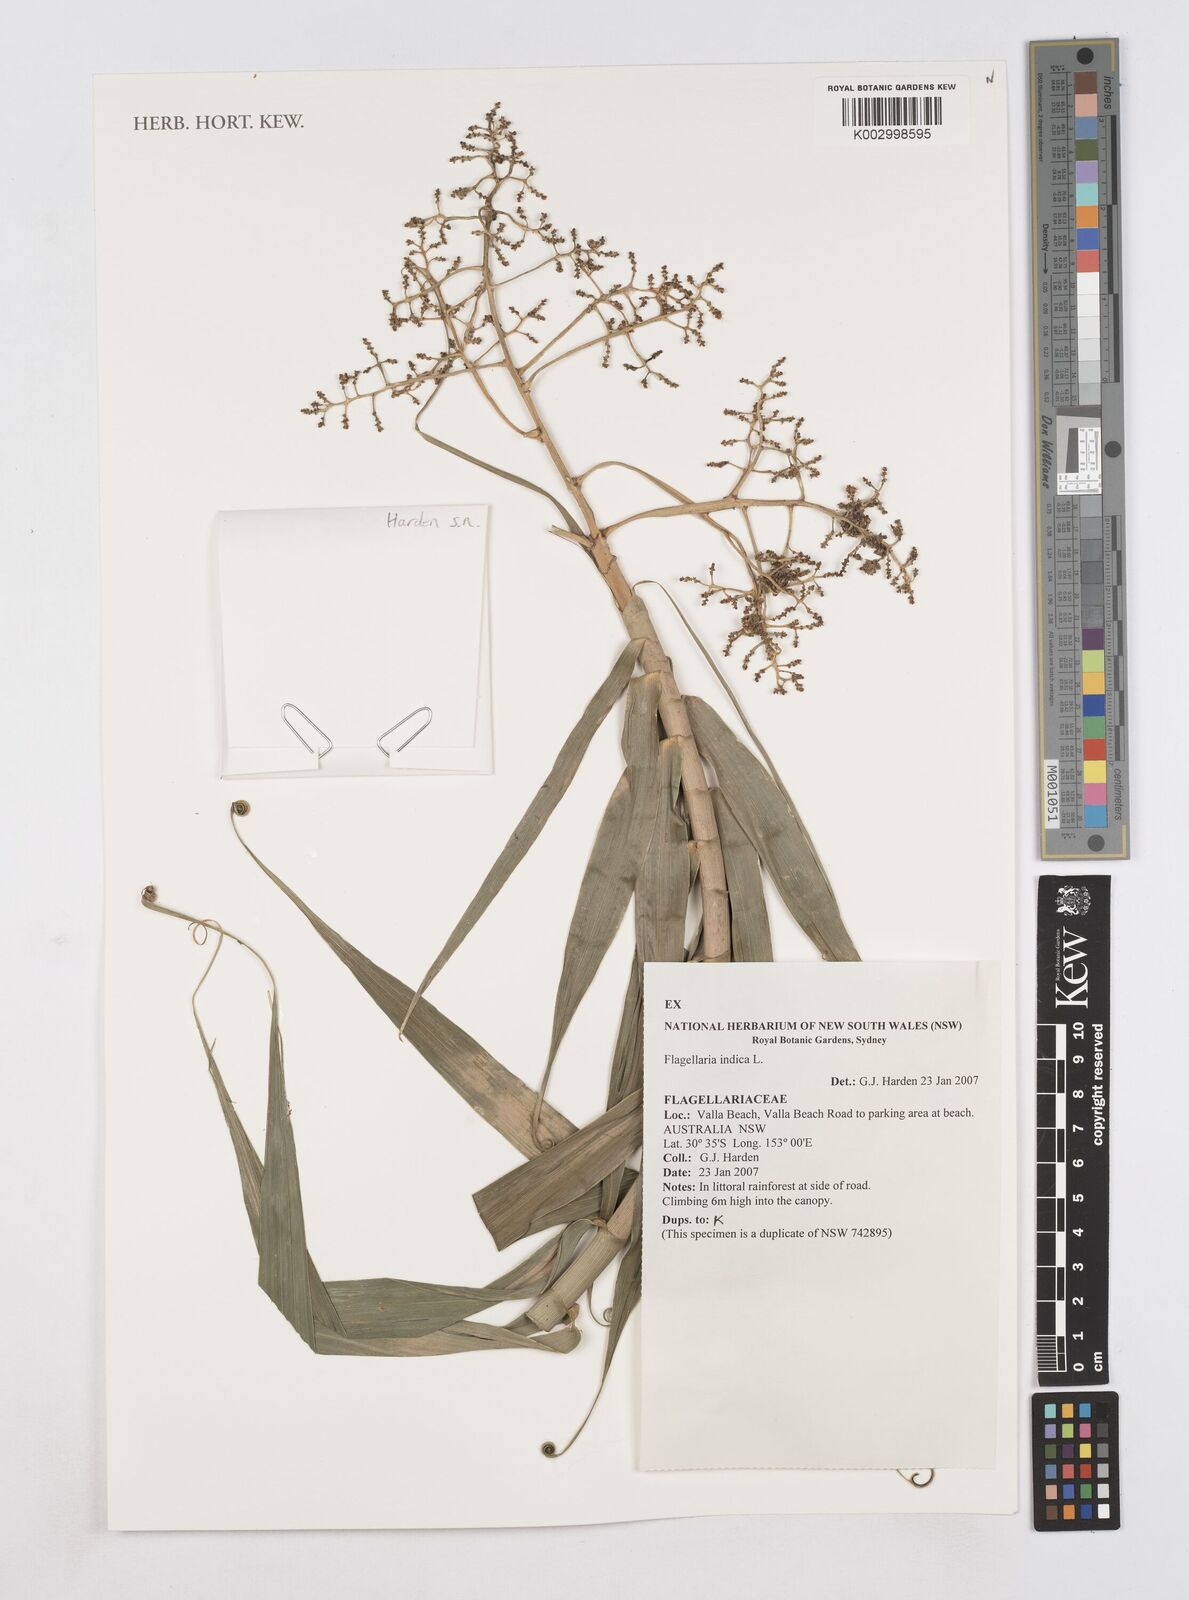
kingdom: Plantae
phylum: Tracheophyta
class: Liliopsida
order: Poales
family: Flagellariaceae
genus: Flagellaria
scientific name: Flagellaria indica
